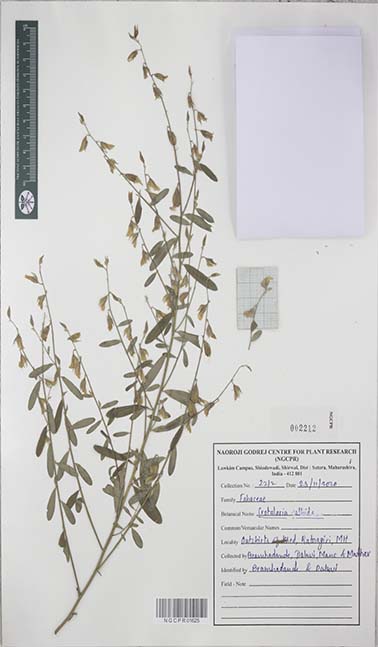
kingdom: Plantae
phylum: Tracheophyta
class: Magnoliopsida
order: Fabales
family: Fabaceae
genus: Crotalaria
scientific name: Crotalaria albida
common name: Taiwan crotalaria
